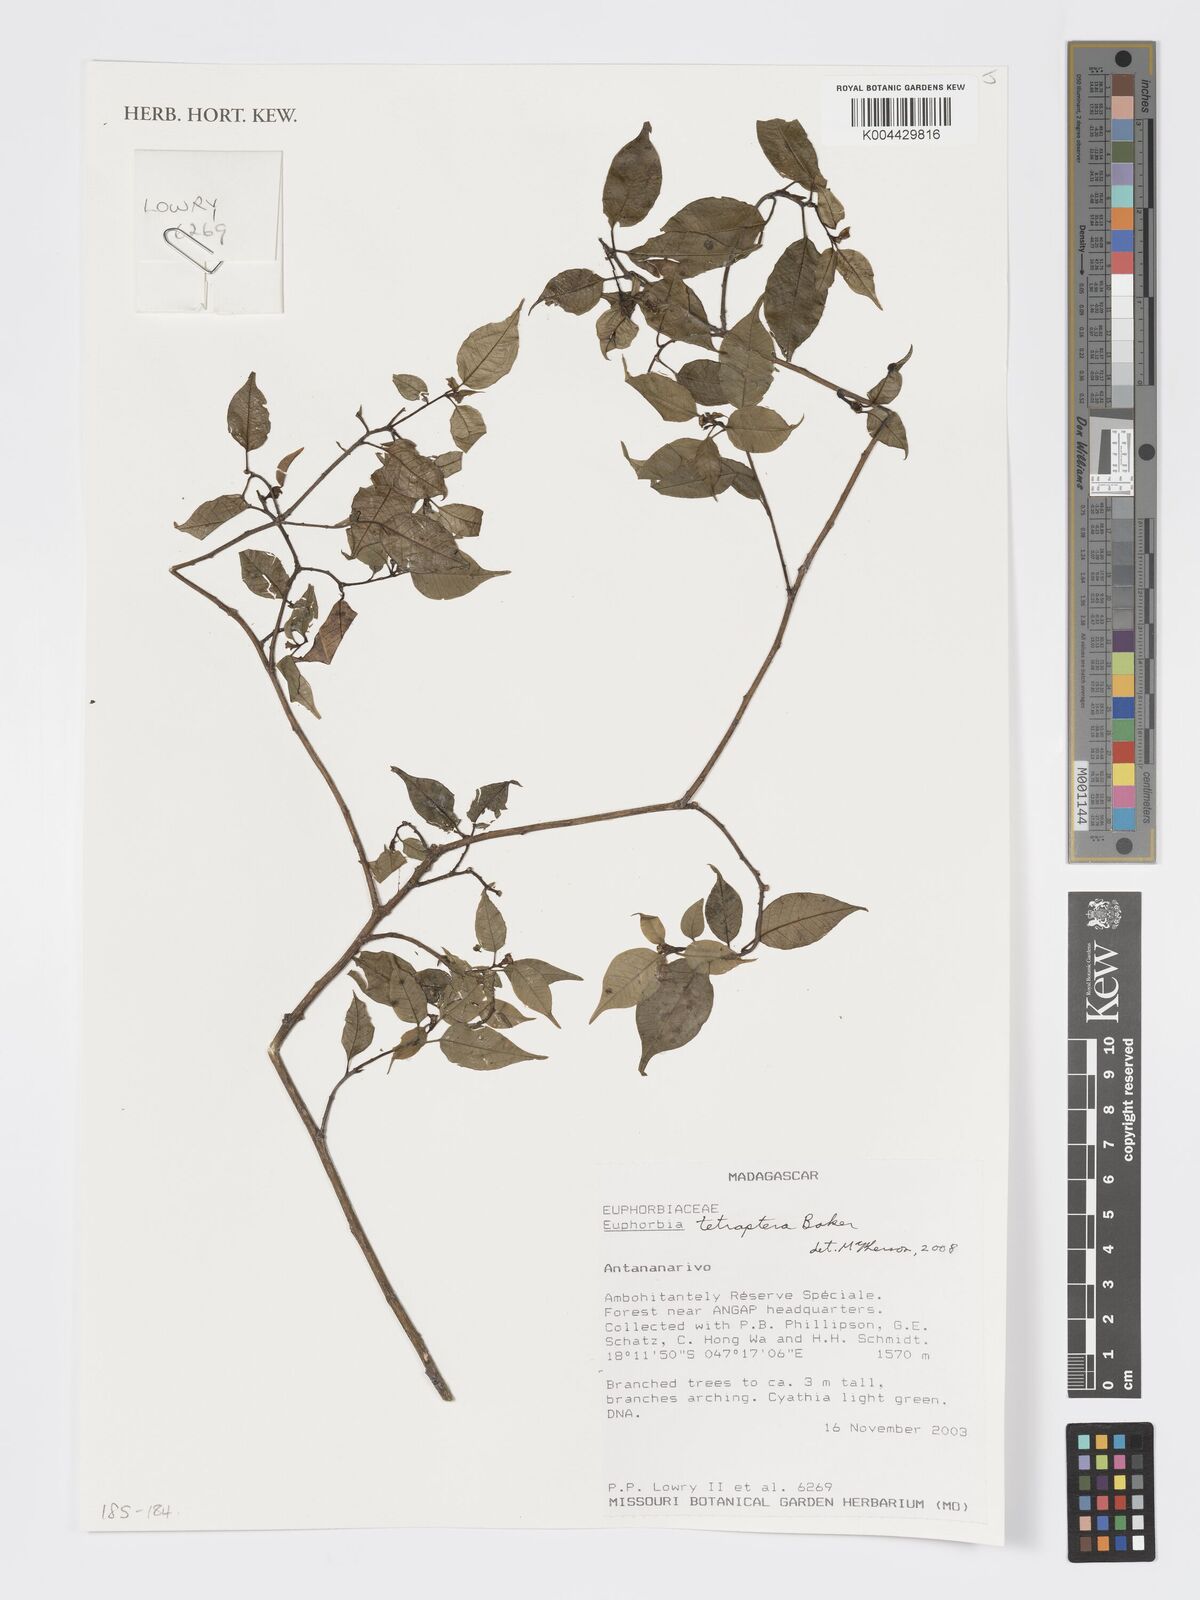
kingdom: Plantae
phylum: Tracheophyta
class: Magnoliopsida
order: Malpighiales
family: Euphorbiaceae
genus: Euphorbia
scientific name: Euphorbia tetraptera
